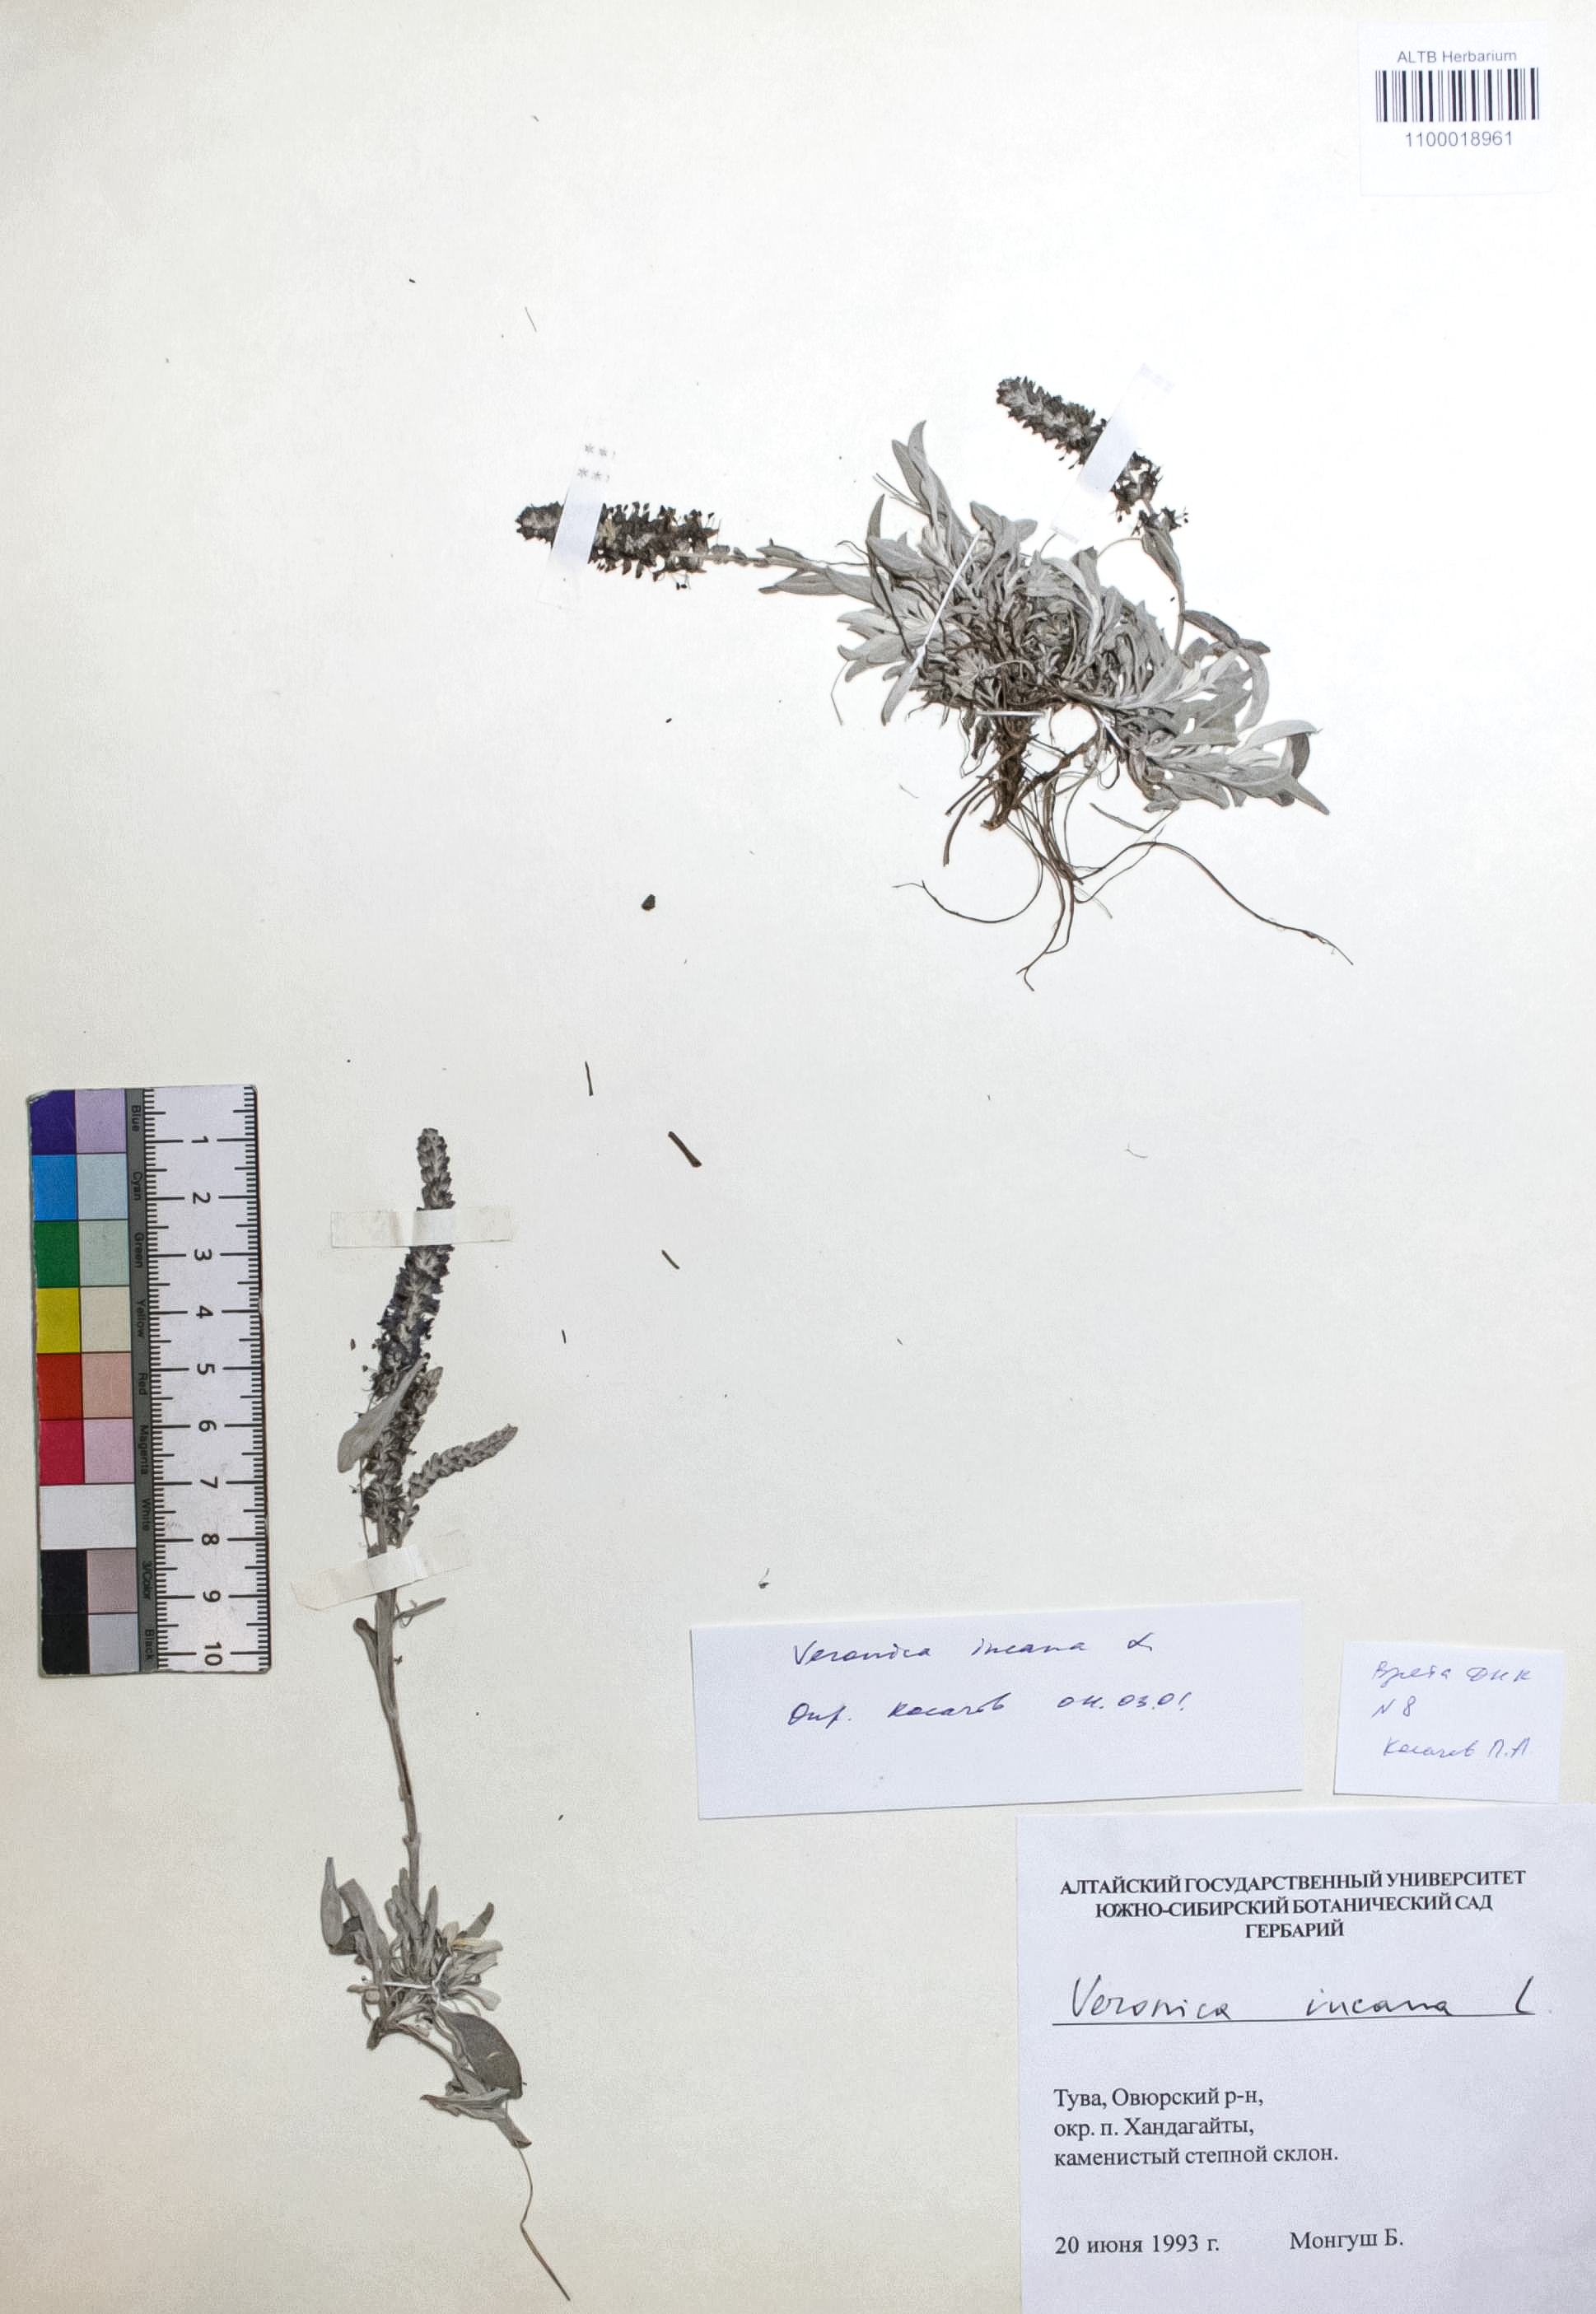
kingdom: Plantae
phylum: Tracheophyta
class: Magnoliopsida
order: Lamiales
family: Plantaginaceae
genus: Veronica
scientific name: Veronica incana
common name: Silver speedwell
